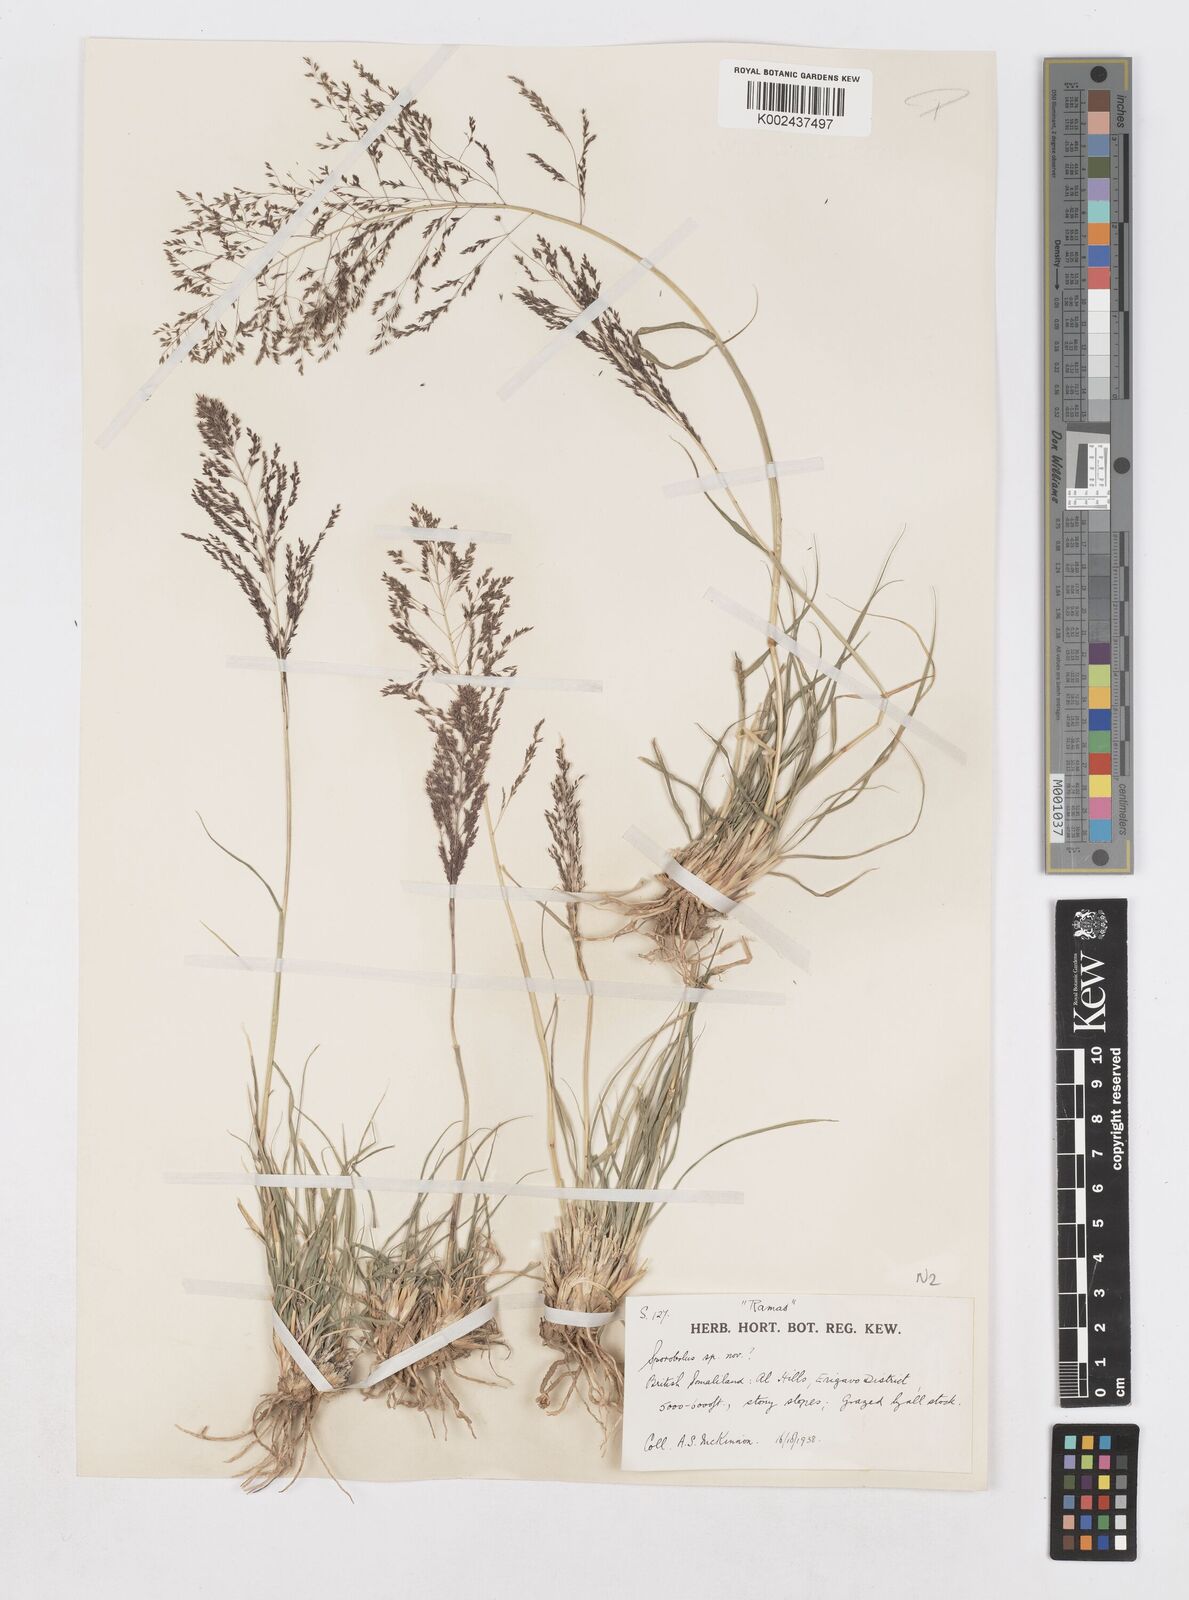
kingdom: Plantae
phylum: Tracheophyta
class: Liliopsida
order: Poales
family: Poaceae
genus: Sporobolus
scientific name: Sporobolus nervosus
